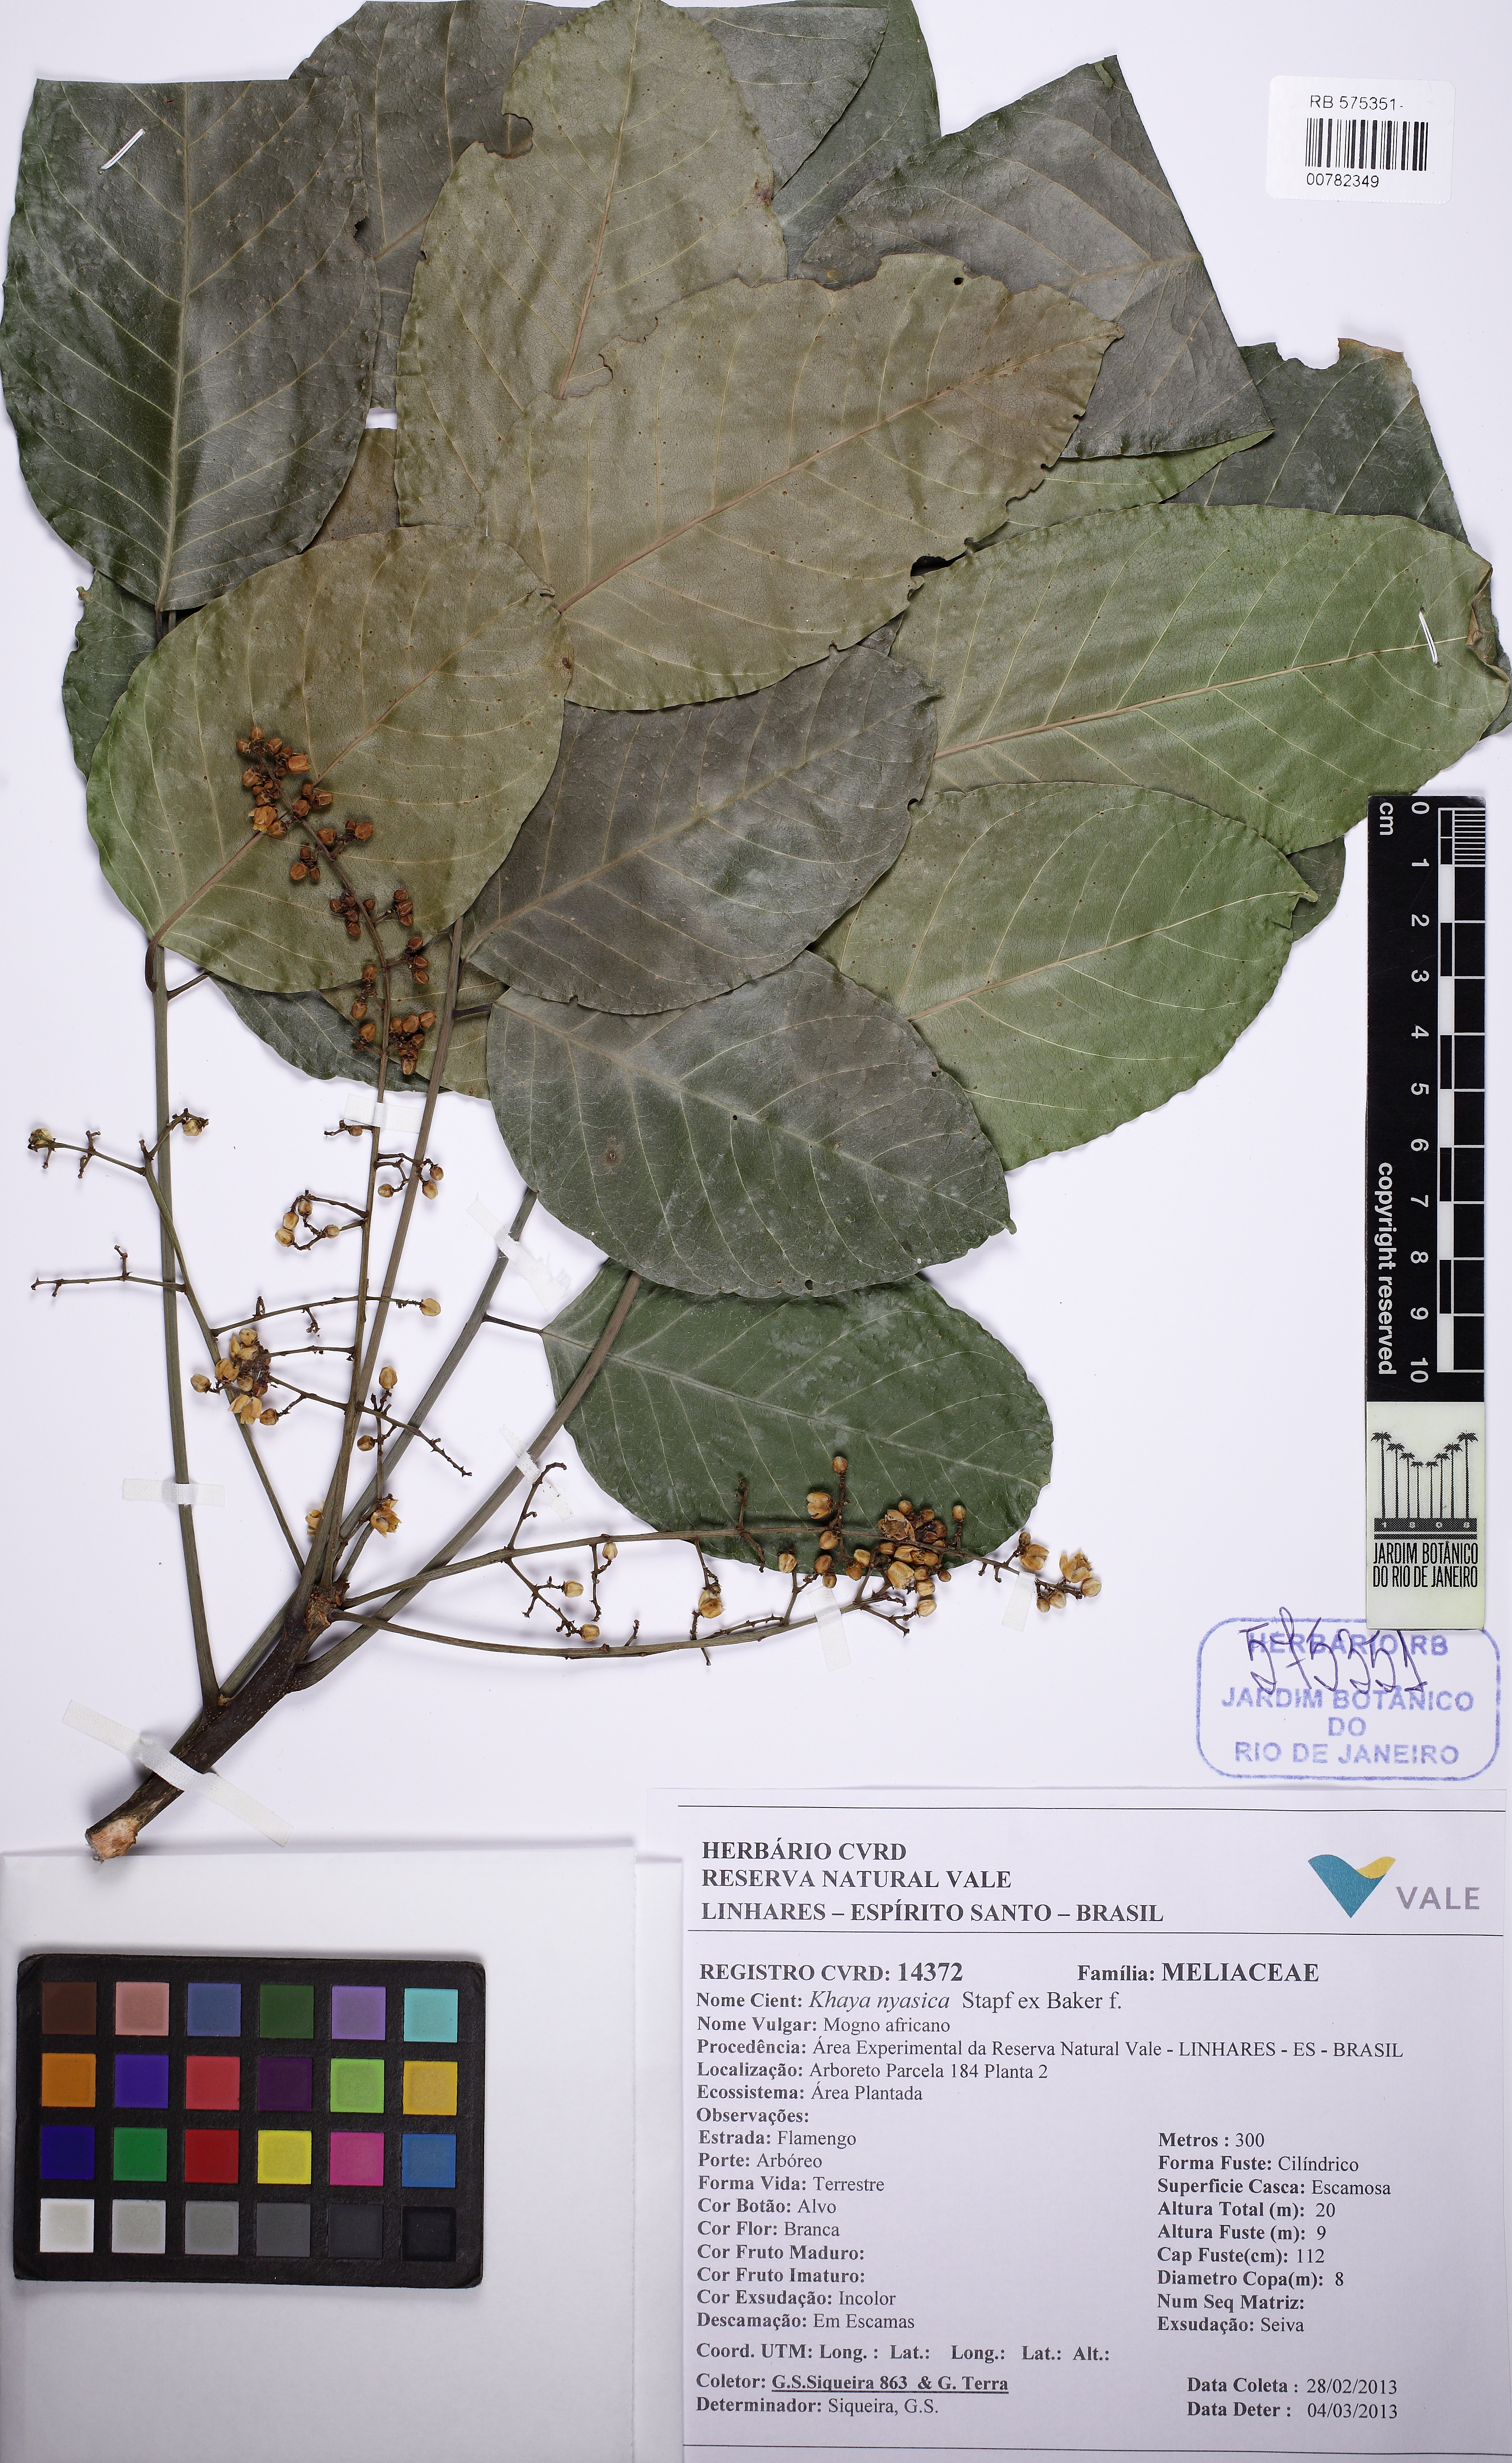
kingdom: Plantae
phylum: Tracheophyta
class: Magnoliopsida
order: Sapindales
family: Meliaceae
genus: Khaya
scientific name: Khaya grandifoliola
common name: African mahogany
